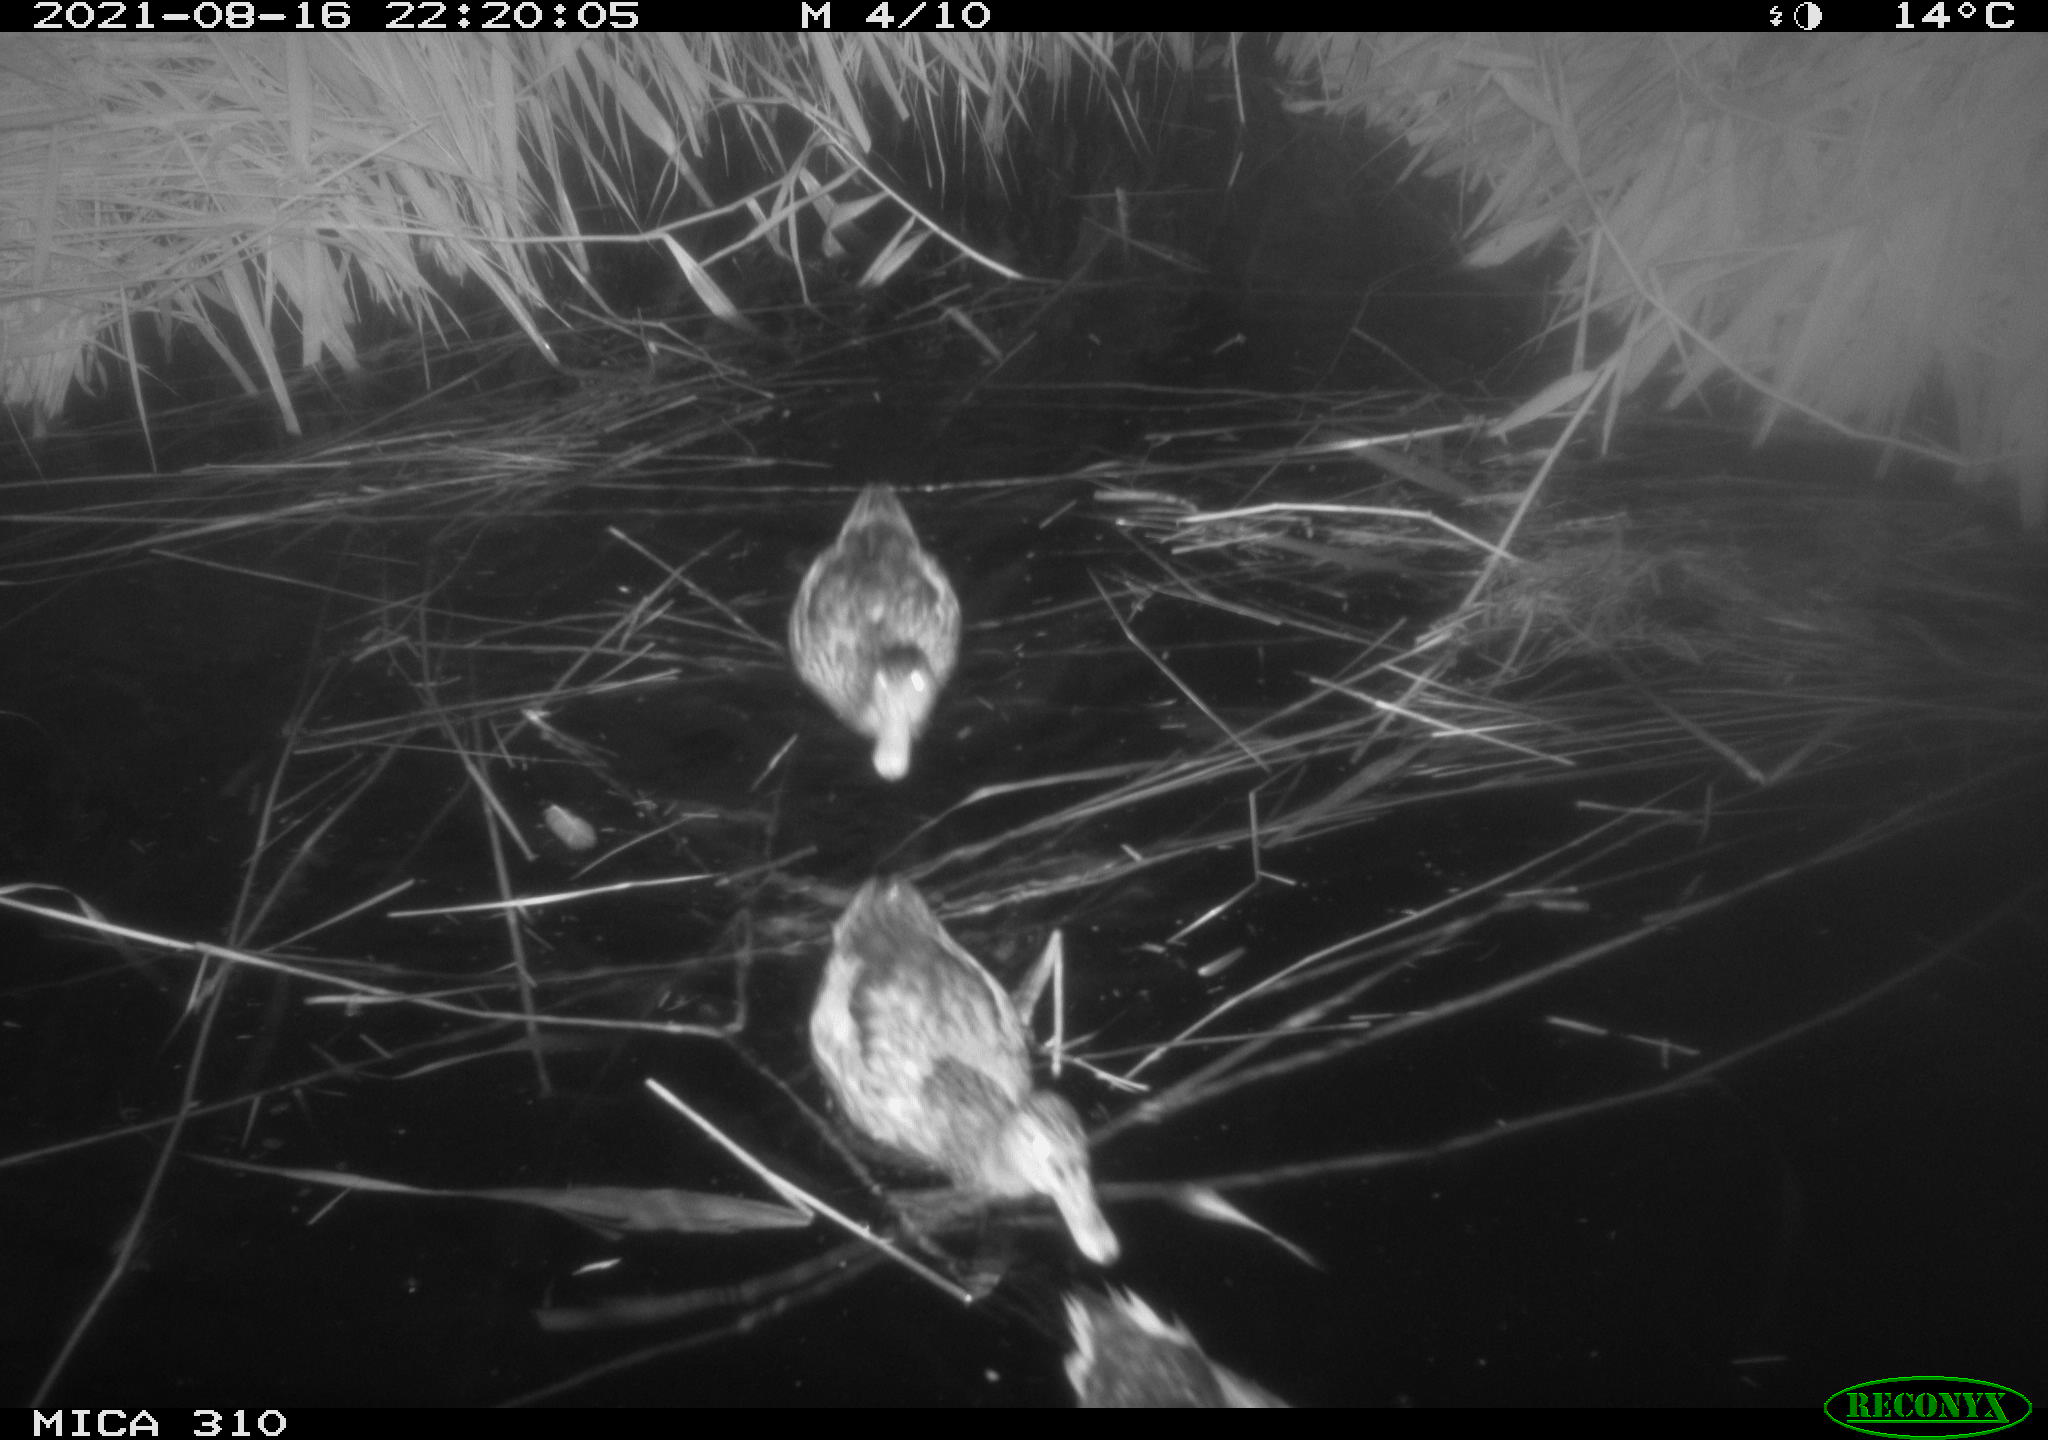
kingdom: Animalia
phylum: Chordata
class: Aves
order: Anseriformes
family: Anatidae
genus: Anas
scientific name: Anas platyrhynchos
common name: Mallard
